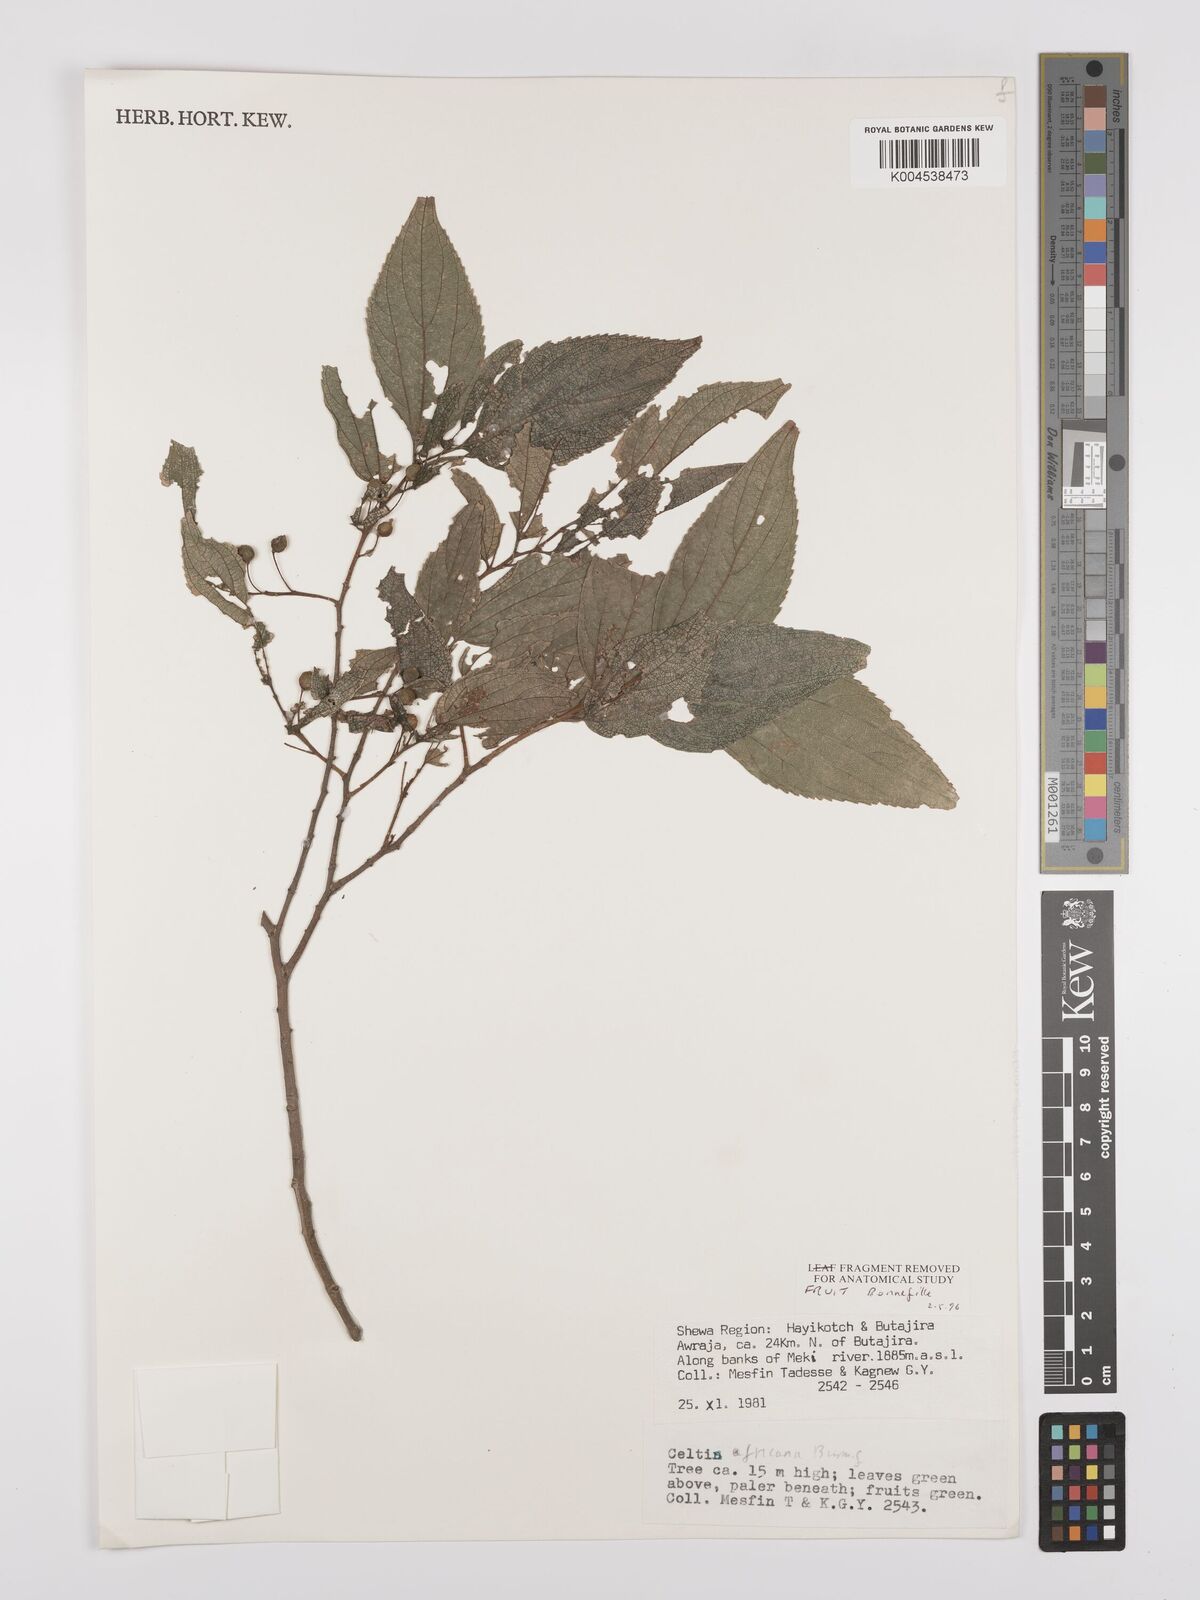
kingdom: Plantae
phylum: Tracheophyta
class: Magnoliopsida
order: Rosales
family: Cannabaceae
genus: Celtis
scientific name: Celtis africana
